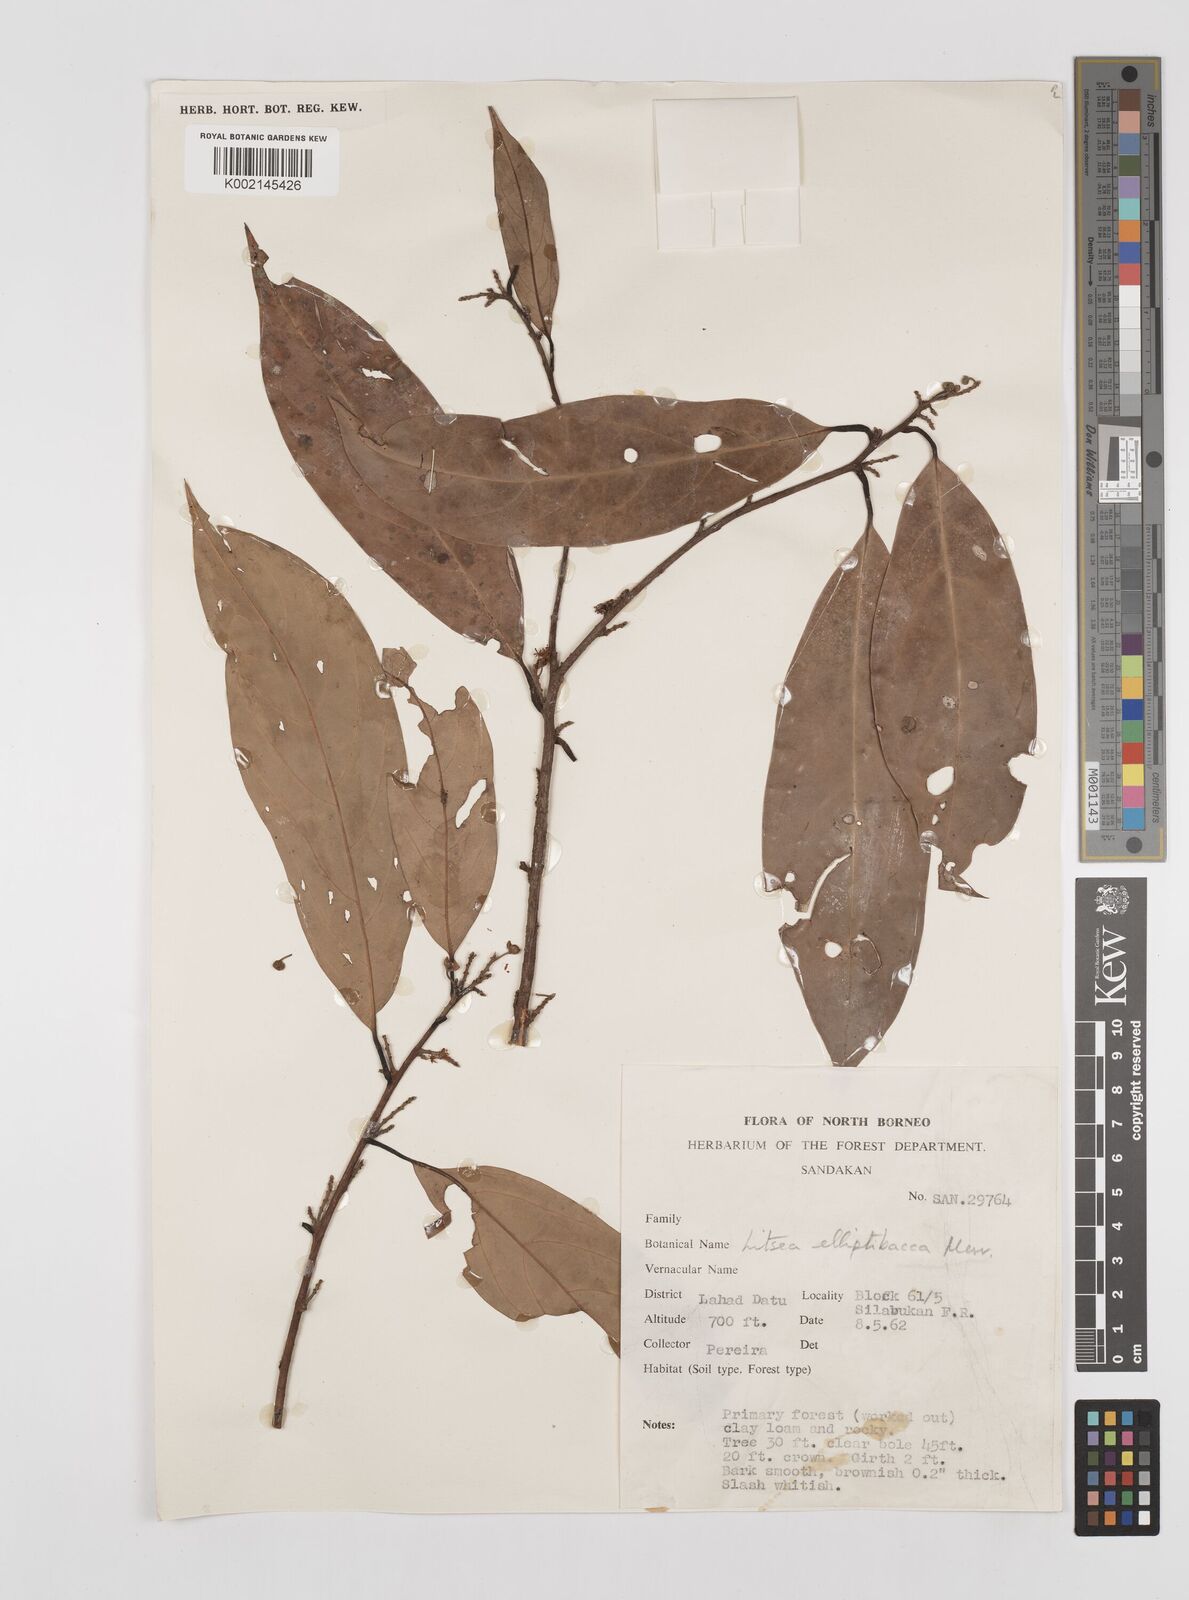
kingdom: Plantae
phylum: Tracheophyta
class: Magnoliopsida
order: Laurales
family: Lauraceae
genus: Litsea
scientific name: Litsea
